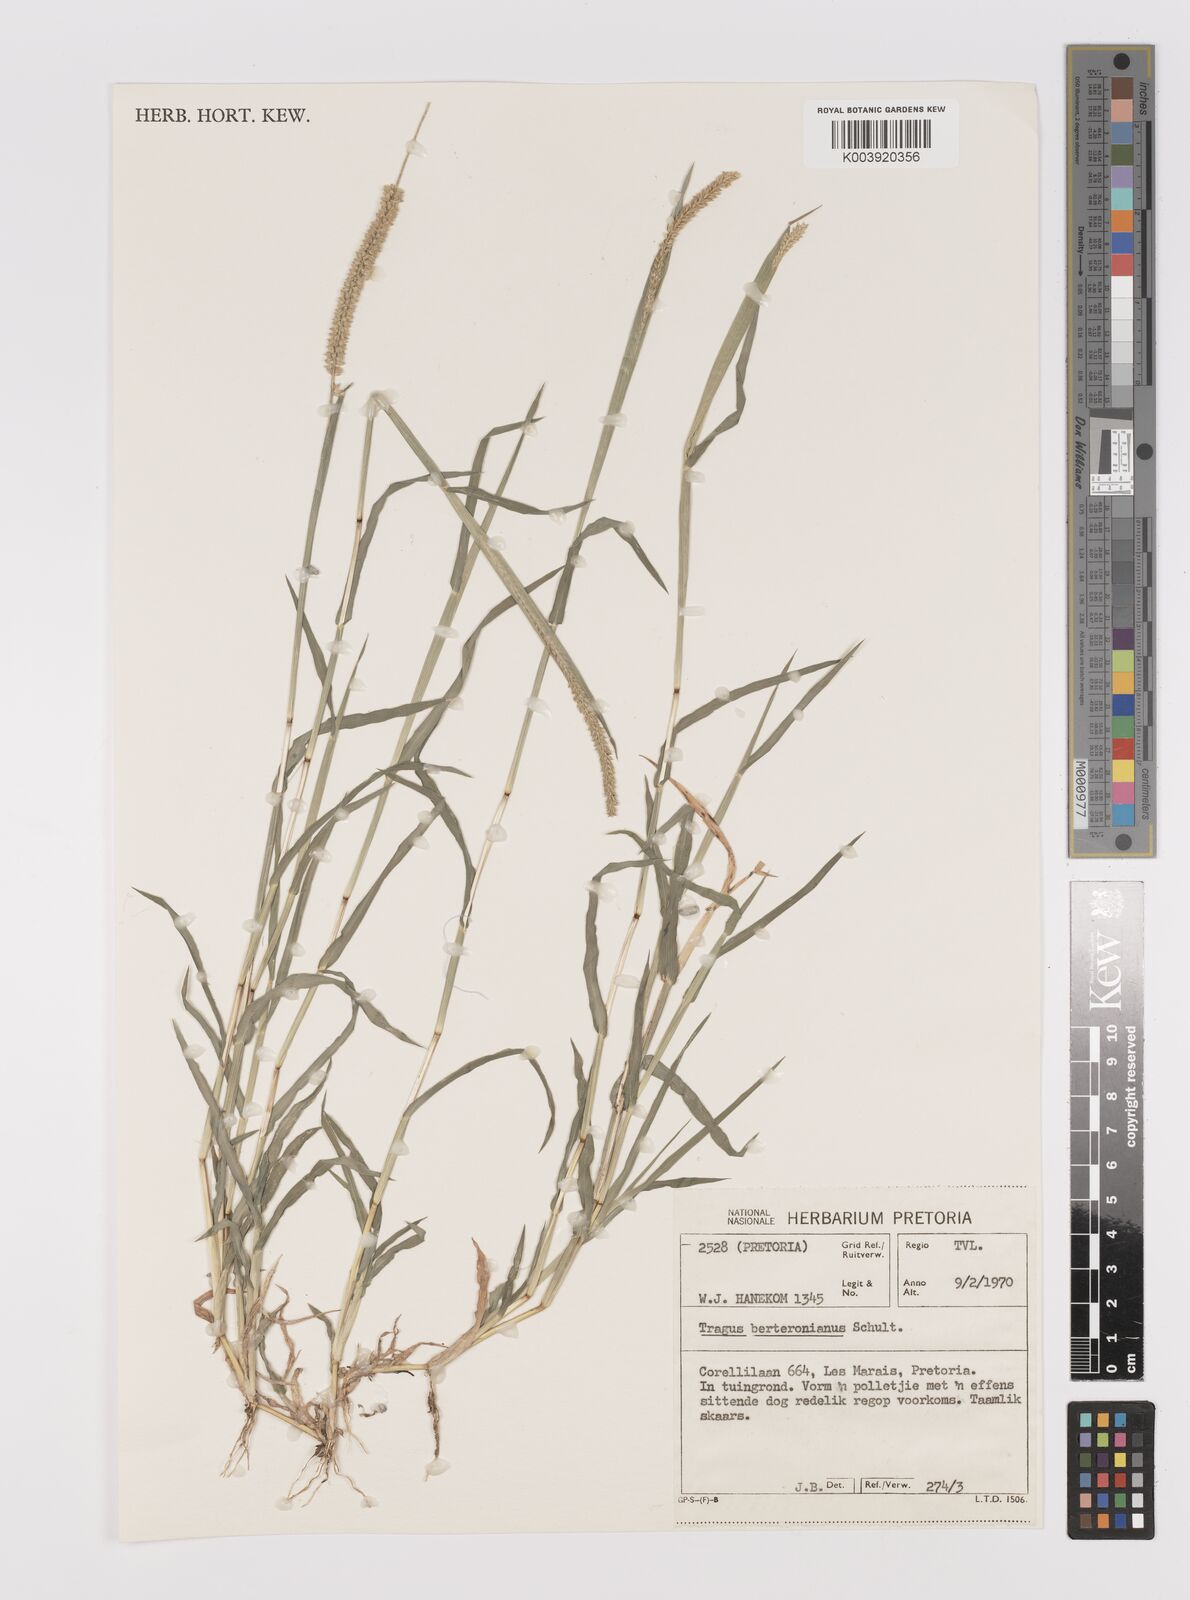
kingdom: Plantae
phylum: Tracheophyta
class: Liliopsida
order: Poales
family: Poaceae
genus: Tragus
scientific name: Tragus berteronianus
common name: African bur-grass
